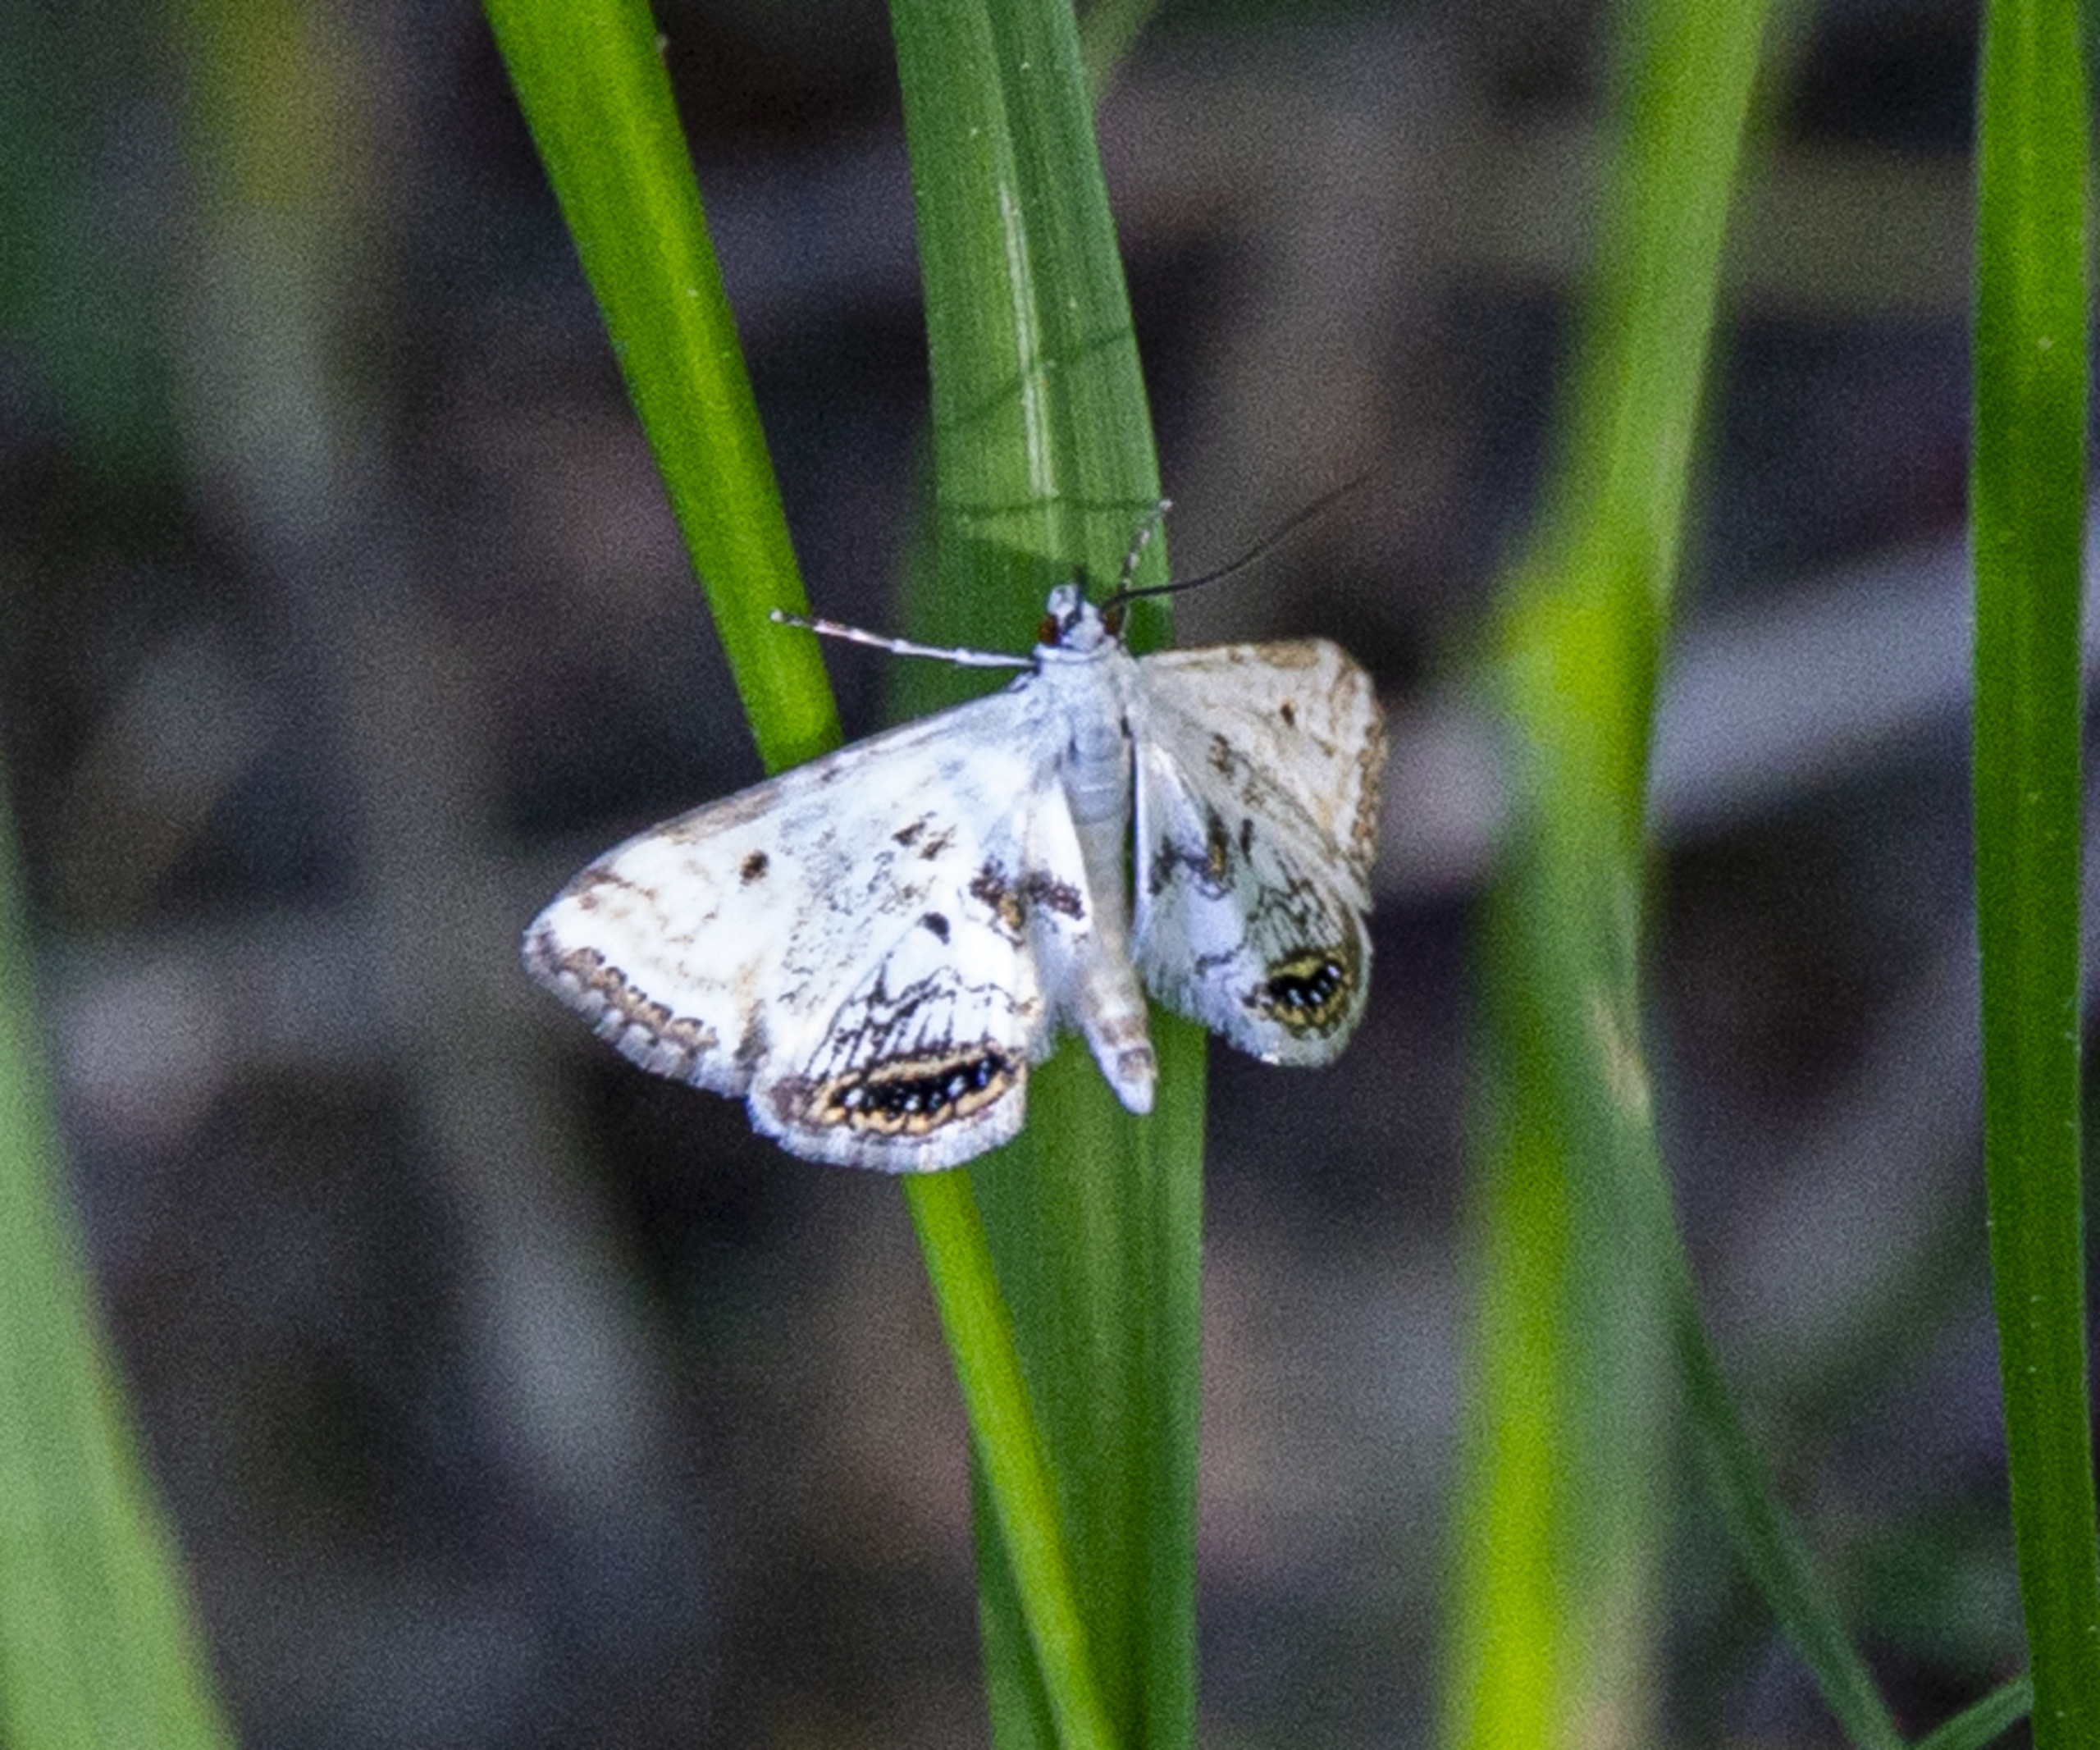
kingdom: Animalia
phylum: Arthropoda
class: Insecta
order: Lepidoptera
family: Crambidae
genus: Cataclysta
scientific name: Cataclysta lemnata
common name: Andemadhalvmøl
